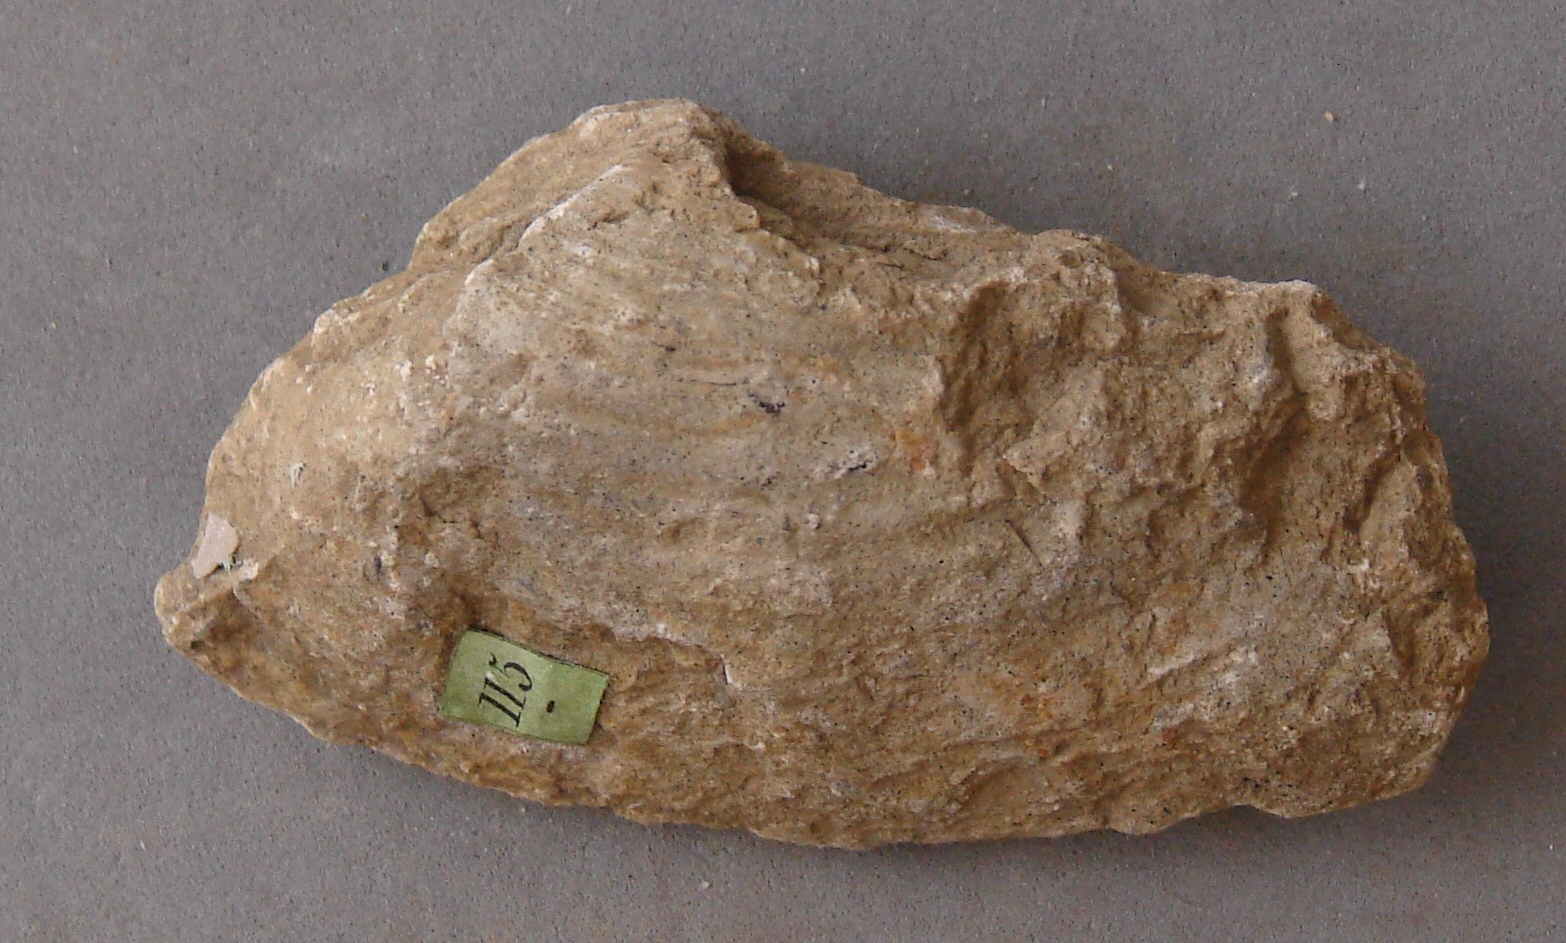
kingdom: Animalia
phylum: Mollusca
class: Bivalvia
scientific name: Bivalvia
